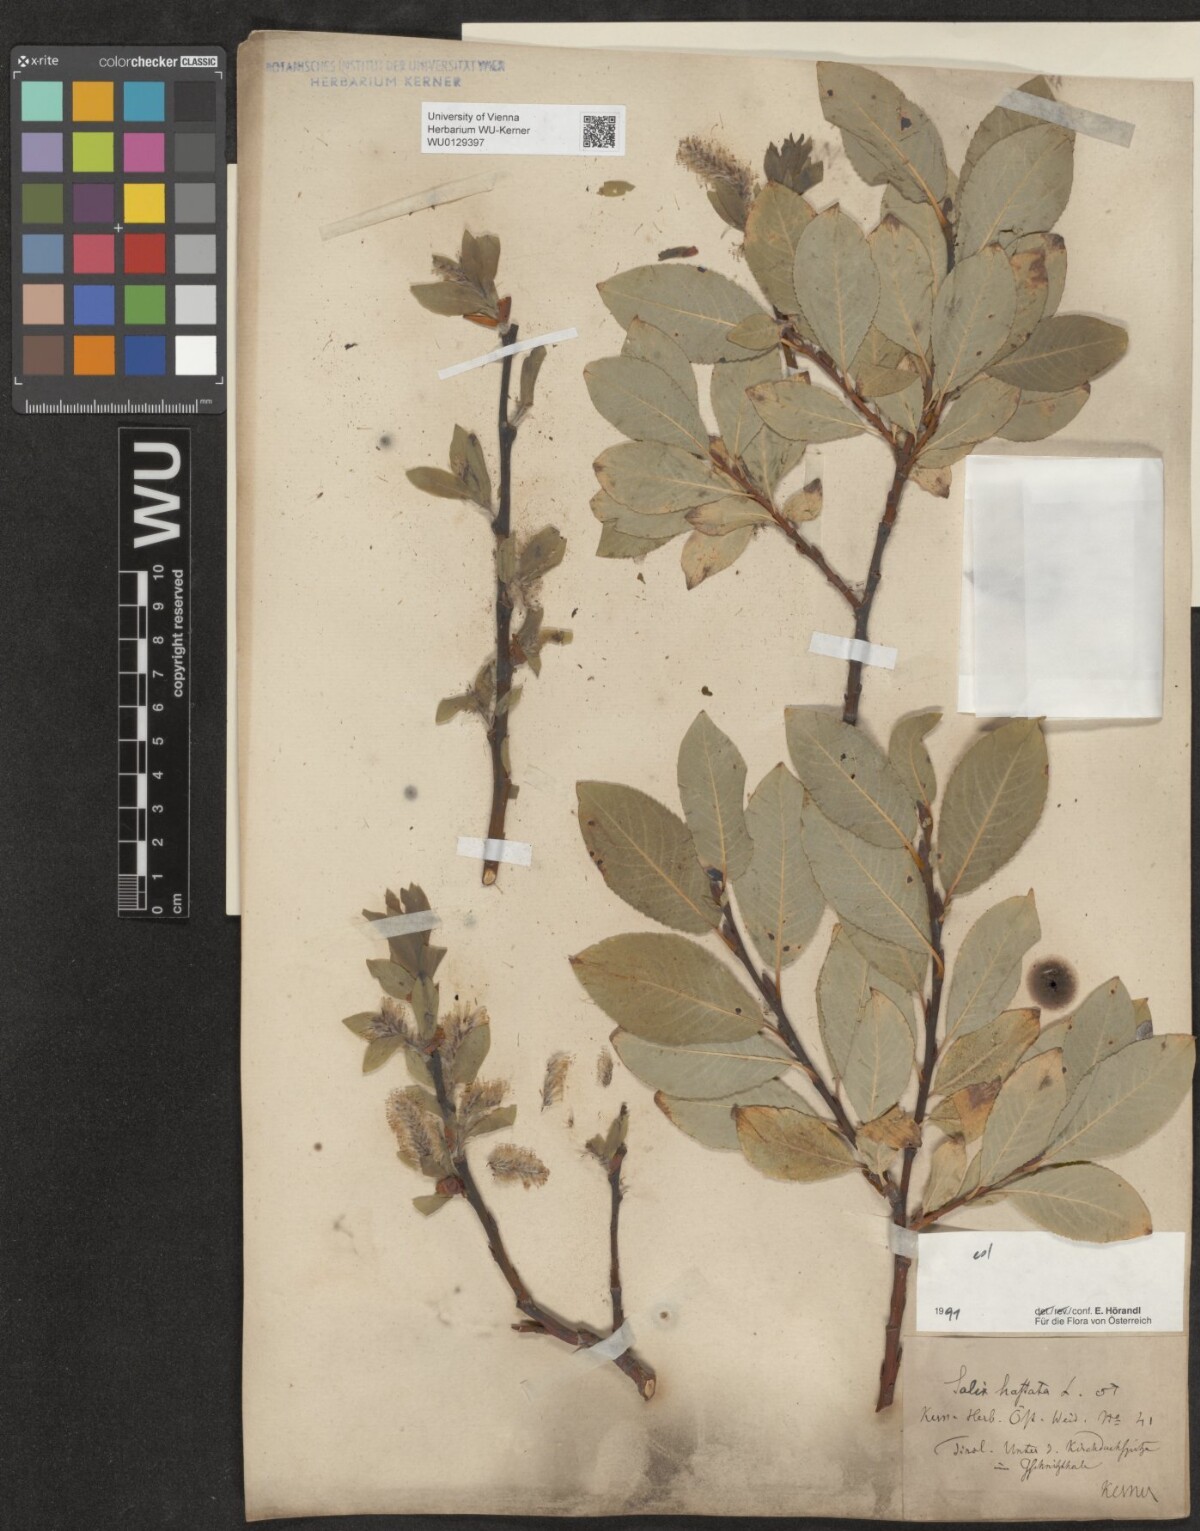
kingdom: Plantae
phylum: Tracheophyta
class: Magnoliopsida
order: Malpighiales
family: Salicaceae
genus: Salix
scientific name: Salix hastata
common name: Halberd willow
